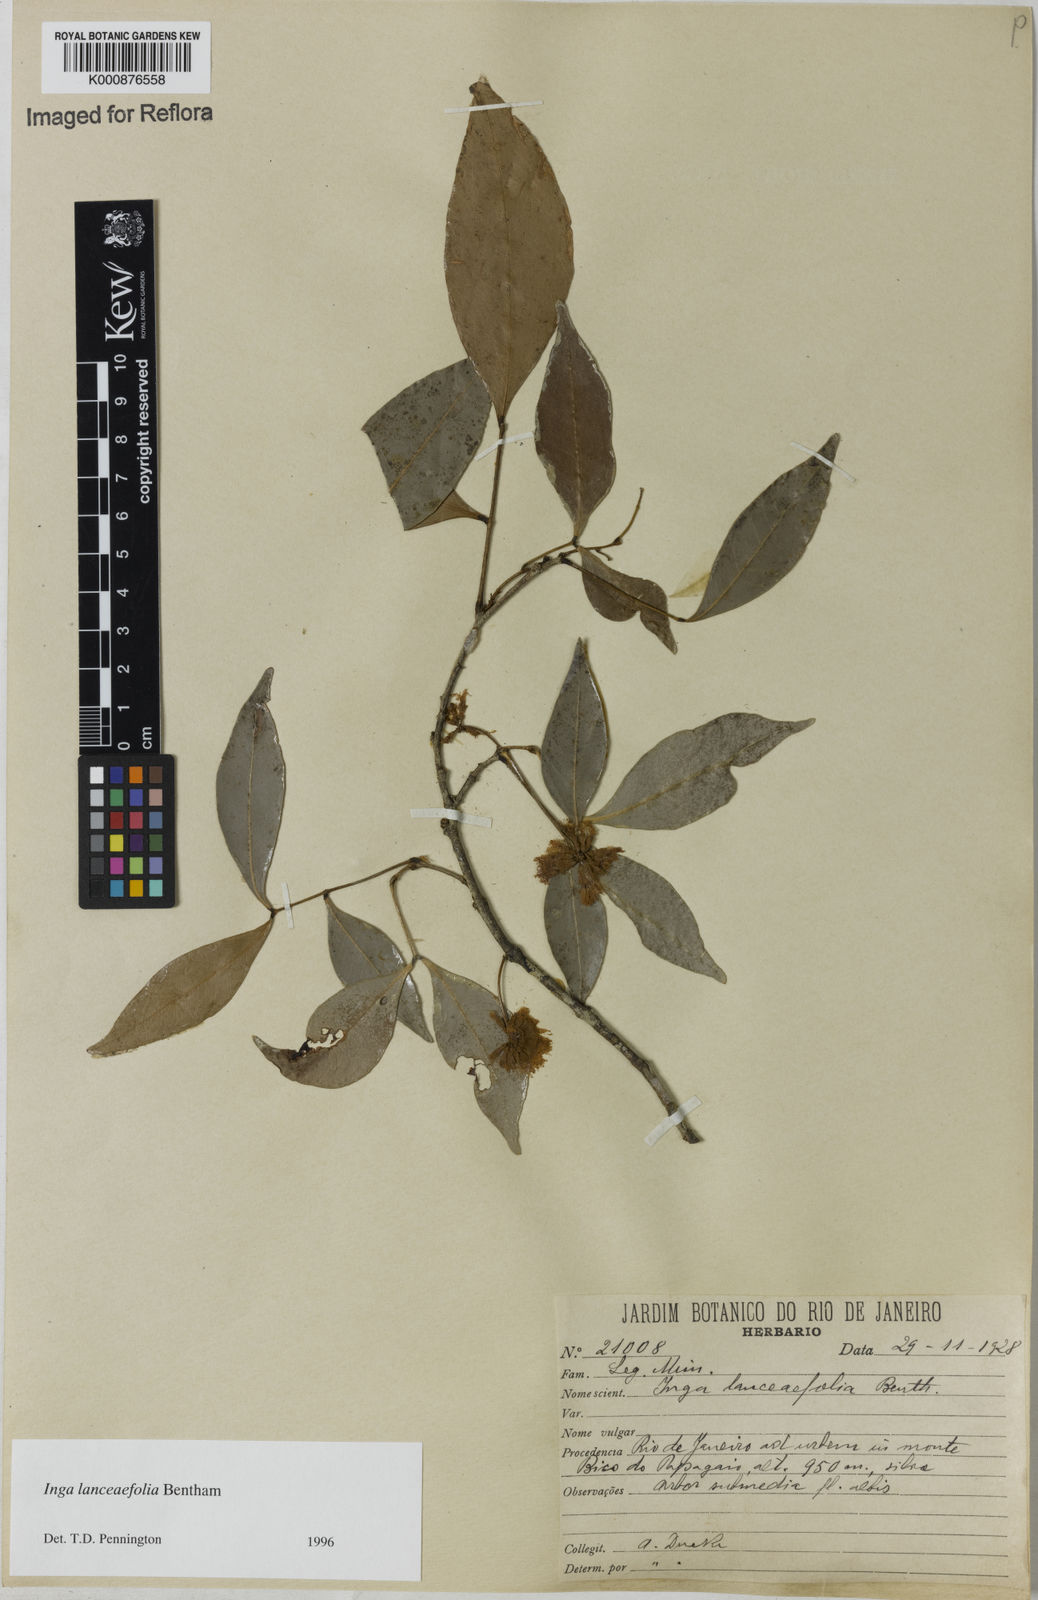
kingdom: Plantae
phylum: Tracheophyta
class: Magnoliopsida
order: Fabales
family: Fabaceae
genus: Inga
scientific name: Inga lanceifolia
